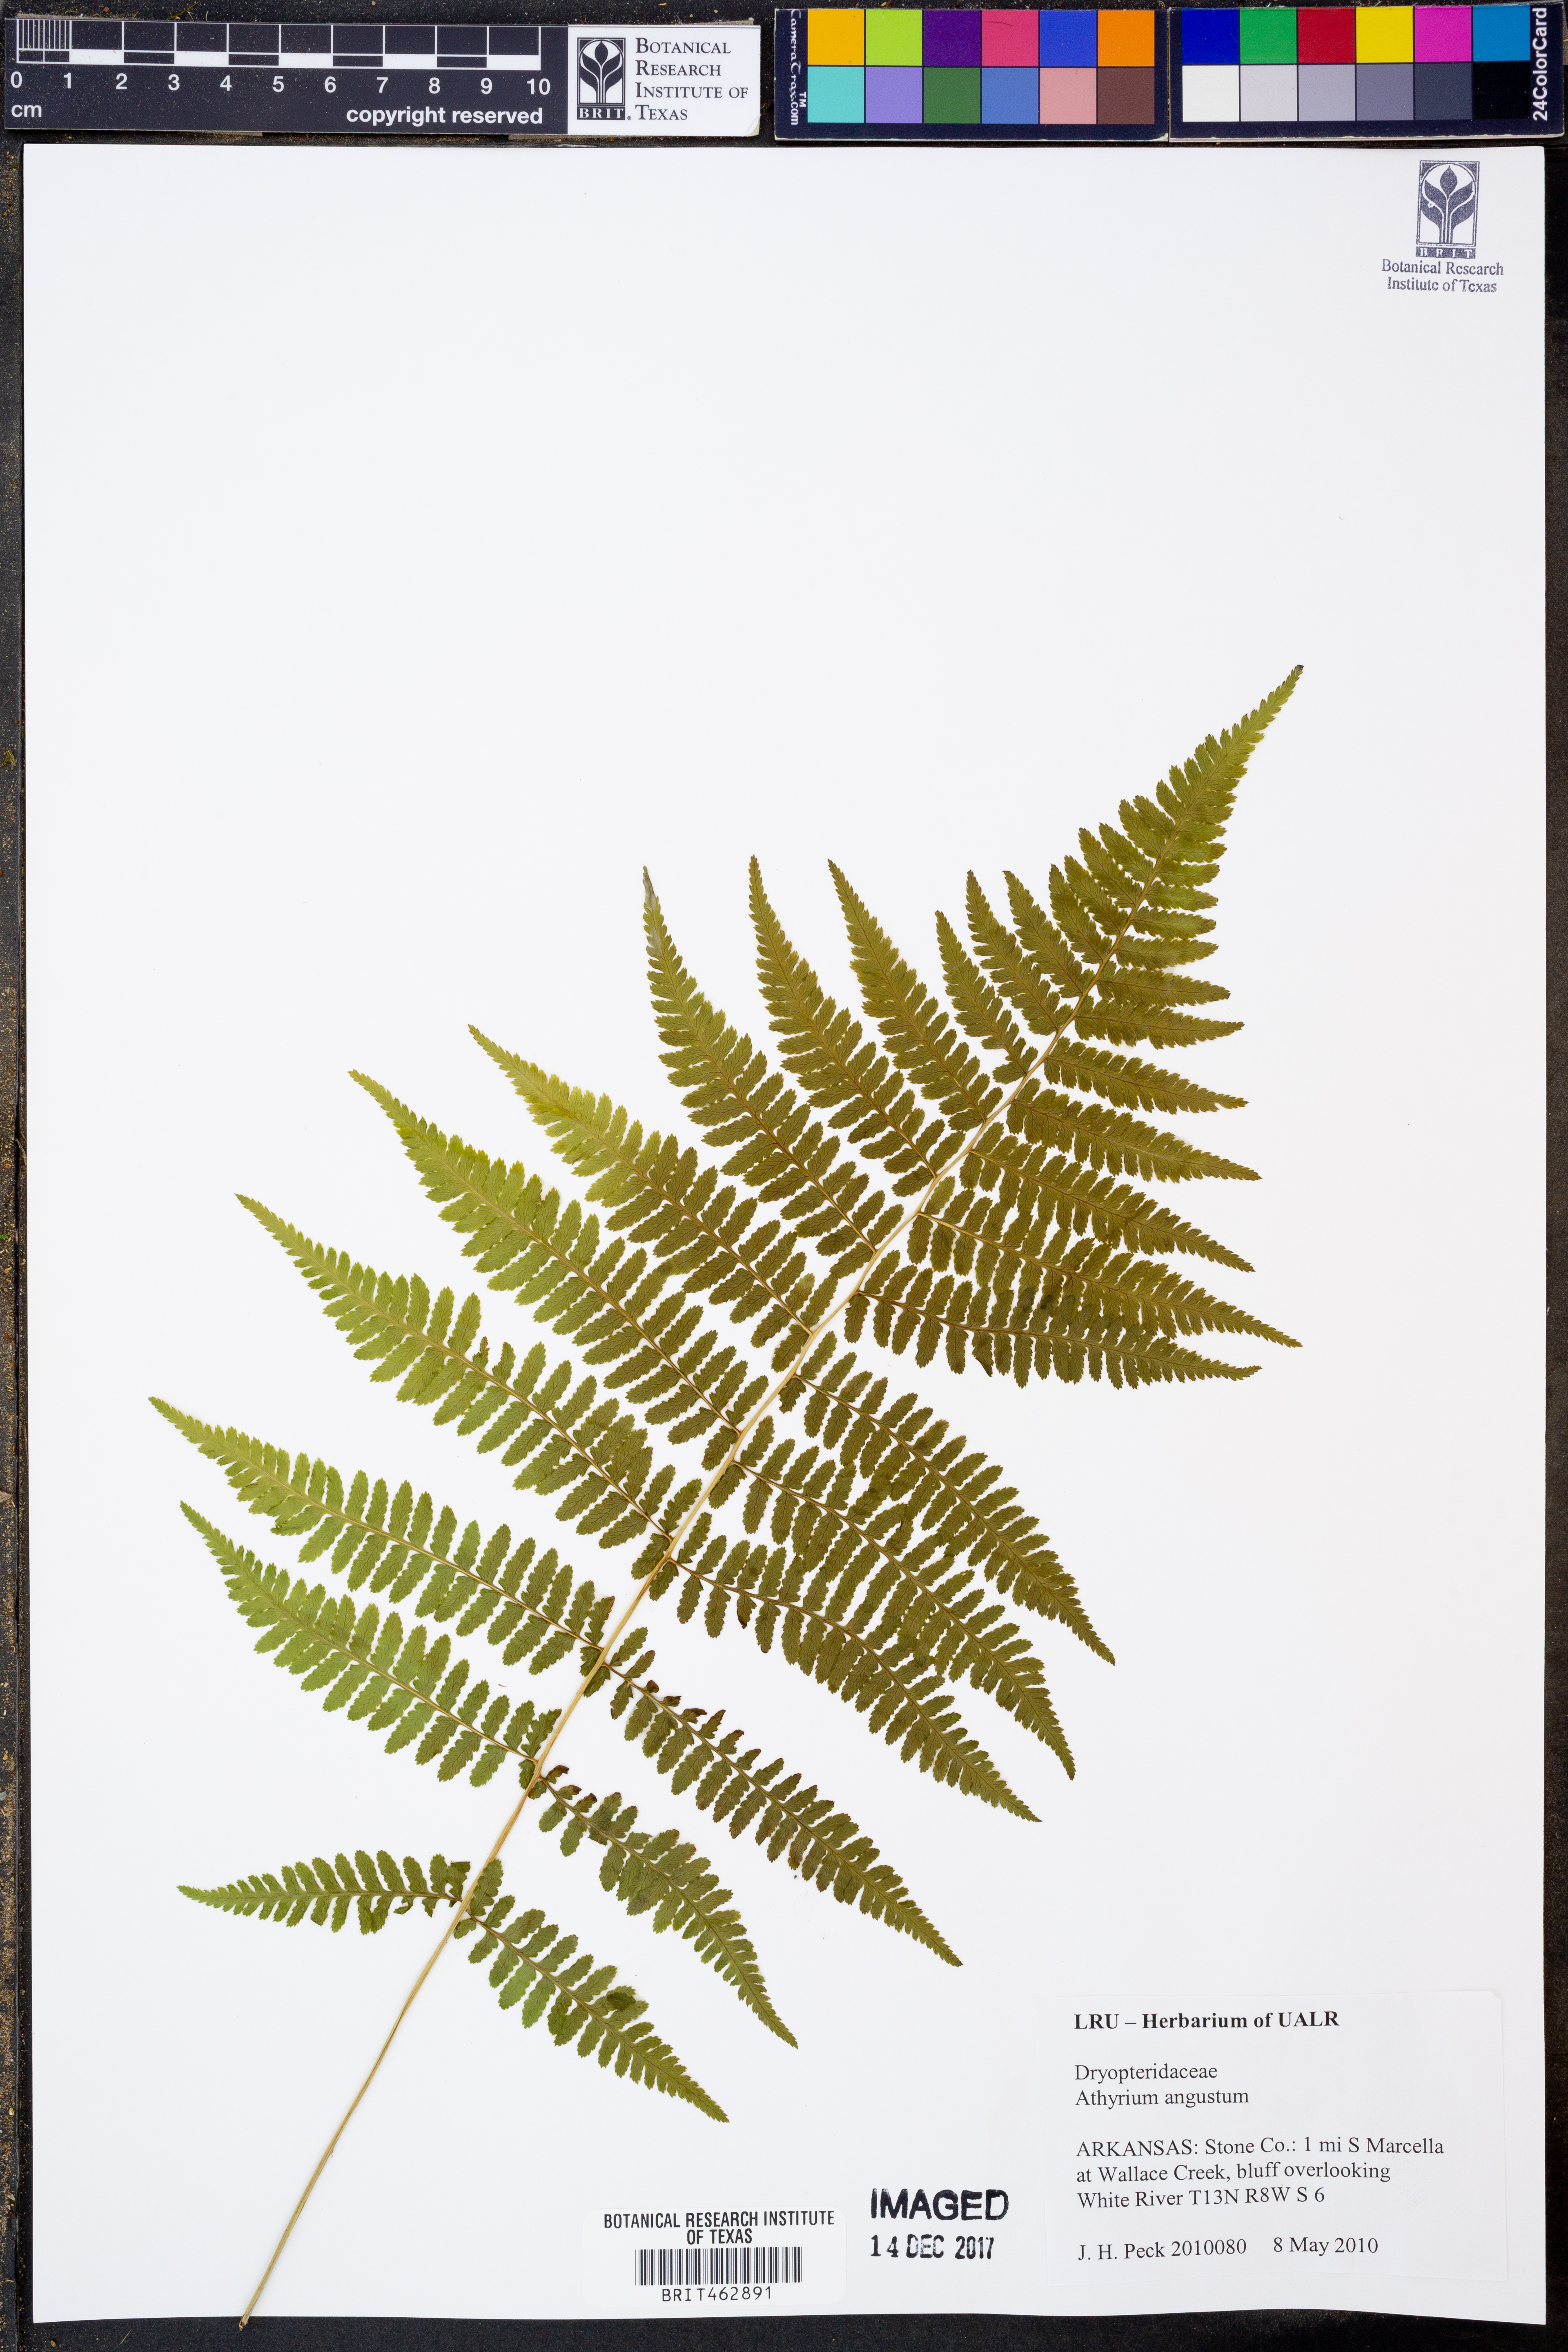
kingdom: Plantae
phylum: Tracheophyta
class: Polypodiopsida
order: Polypodiales
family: Athyriaceae
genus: Athyrium
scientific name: Athyrium angustum
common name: Northern lady fern
